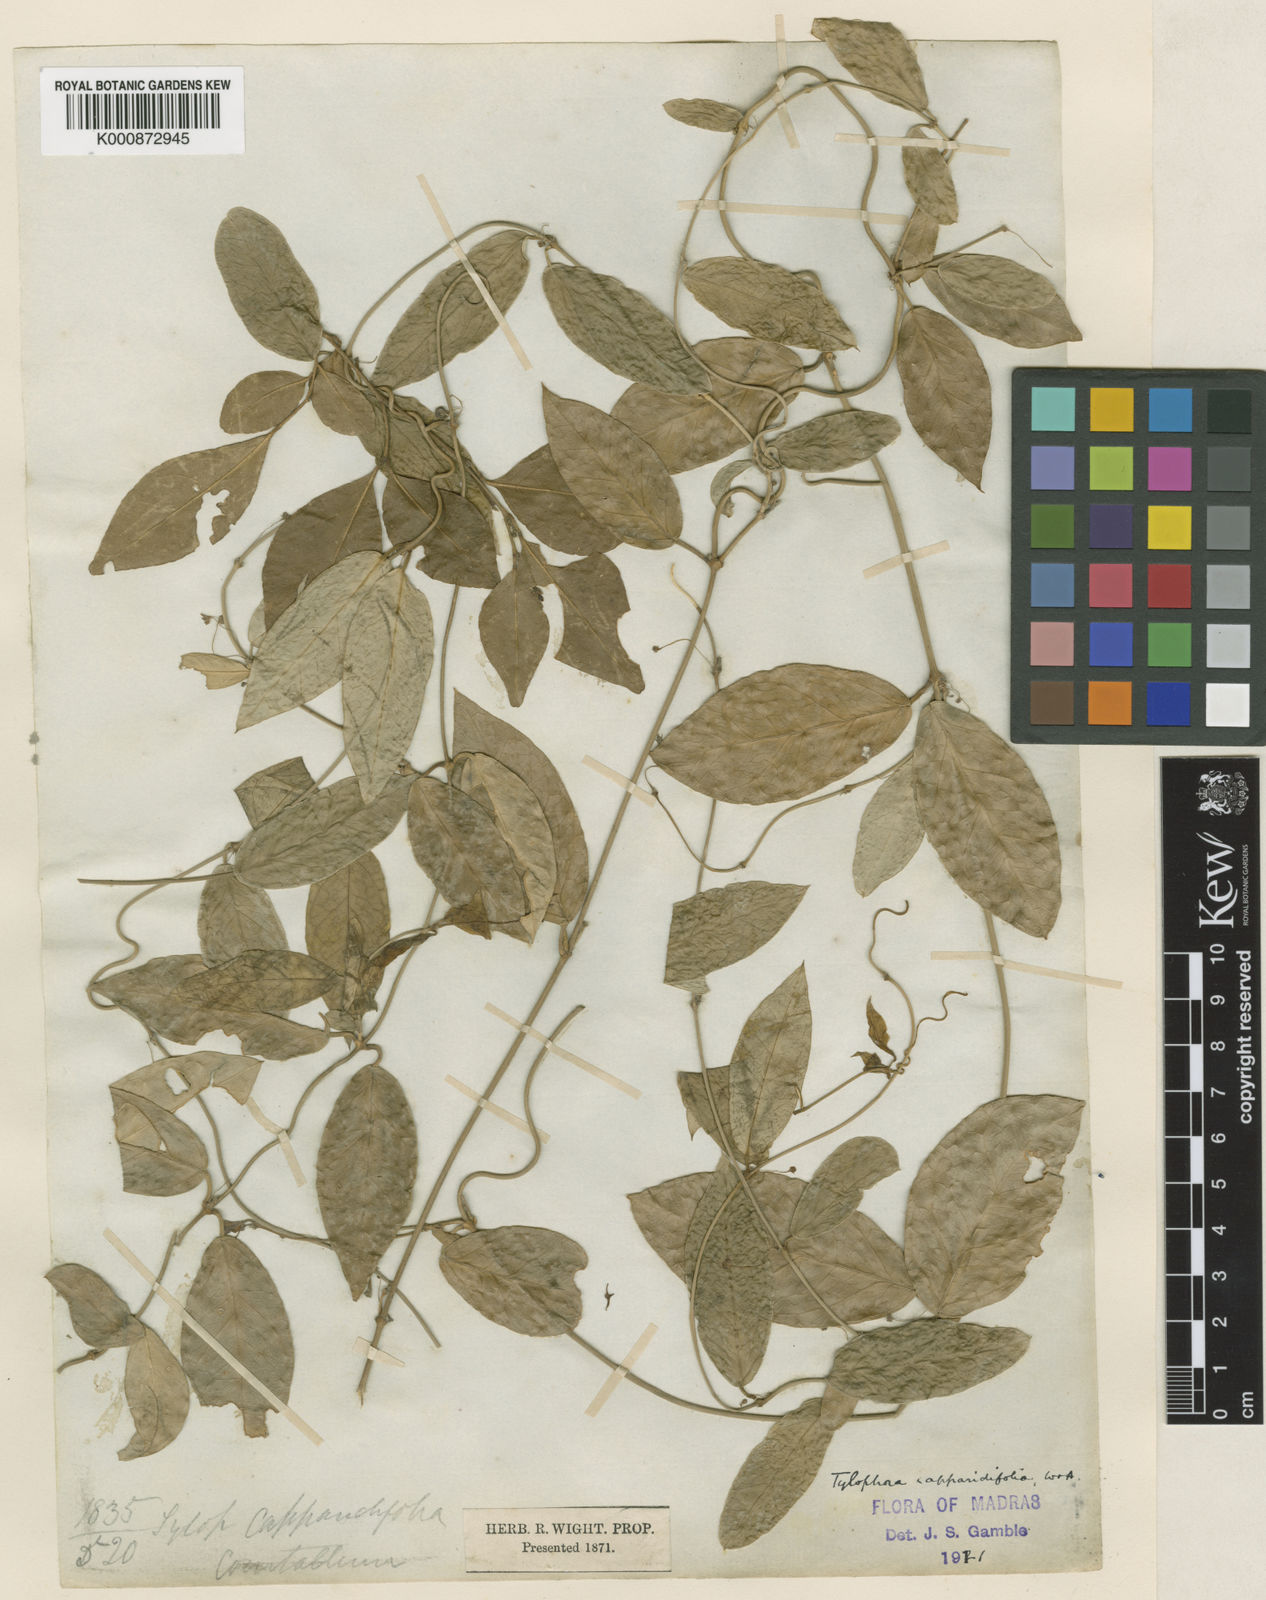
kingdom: Plantae
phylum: Tracheophyta
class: Magnoliopsida
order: Gentianales
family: Apocynaceae
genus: Vincetoxicum
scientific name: Vincetoxicum capparidifolium
